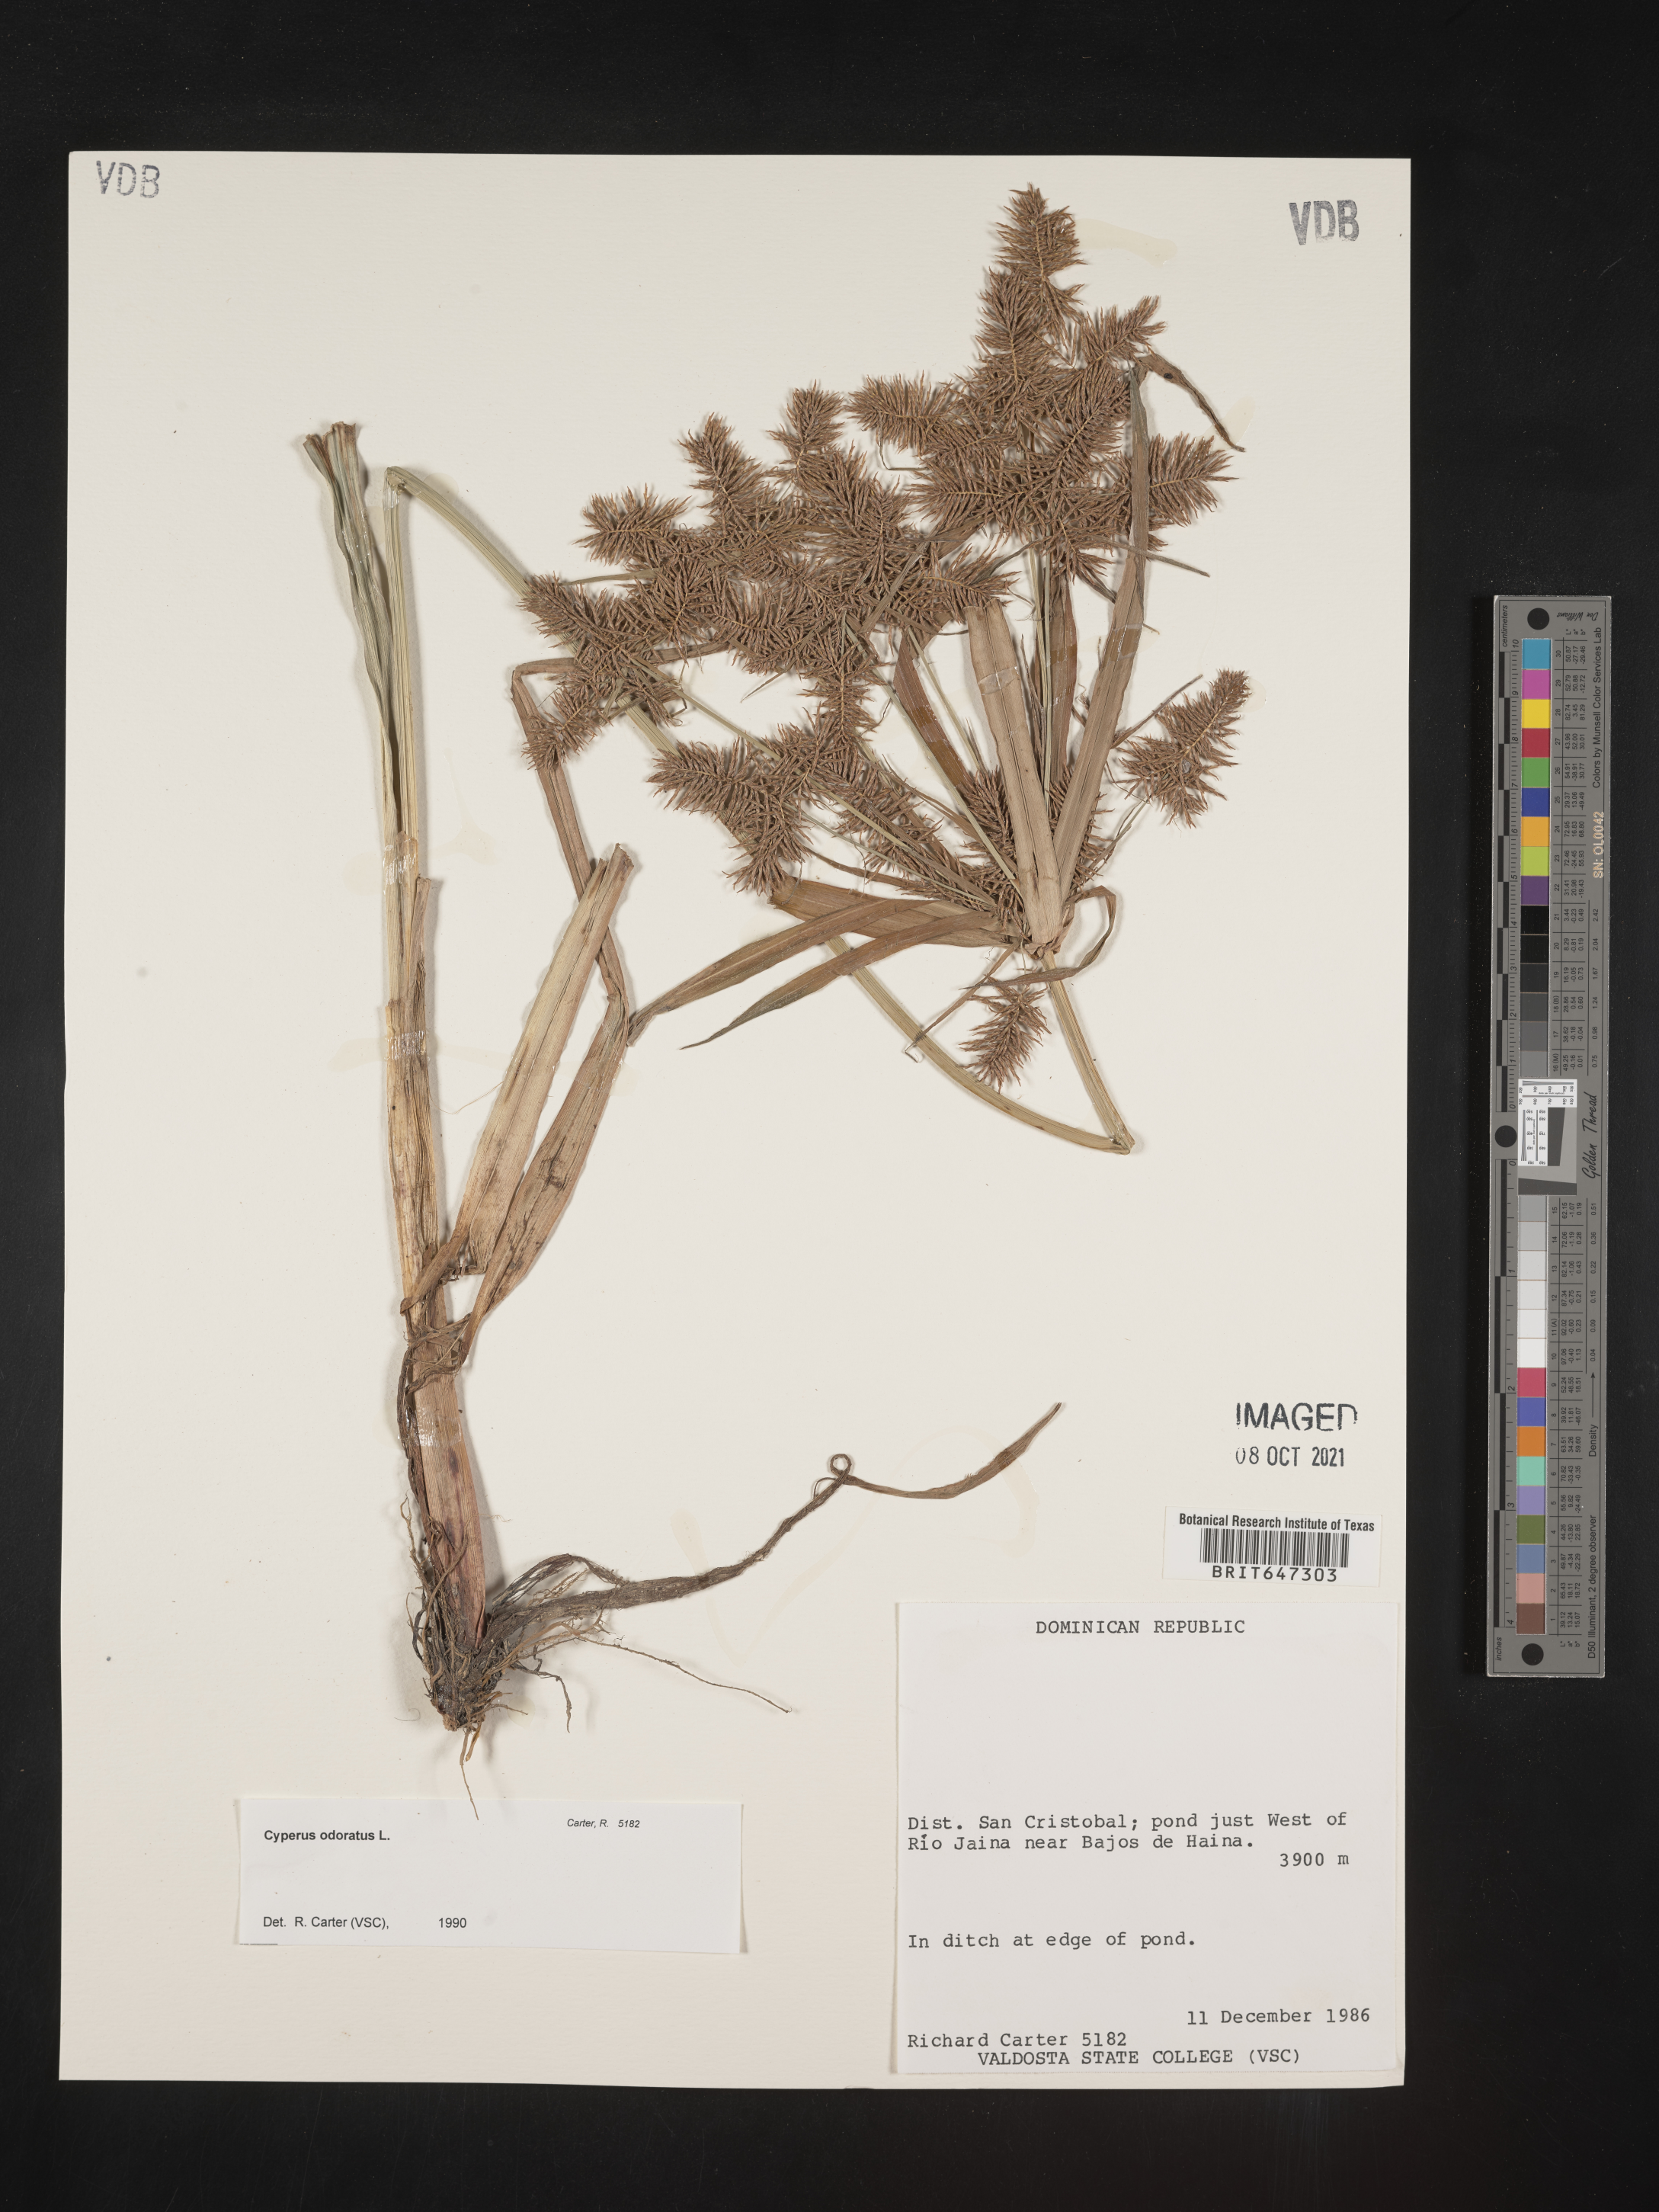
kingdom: Plantae
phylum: Tracheophyta
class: Liliopsida
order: Poales
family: Cyperaceae
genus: Cyperus
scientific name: Cyperus odoratus
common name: Fragrant flatsedge
